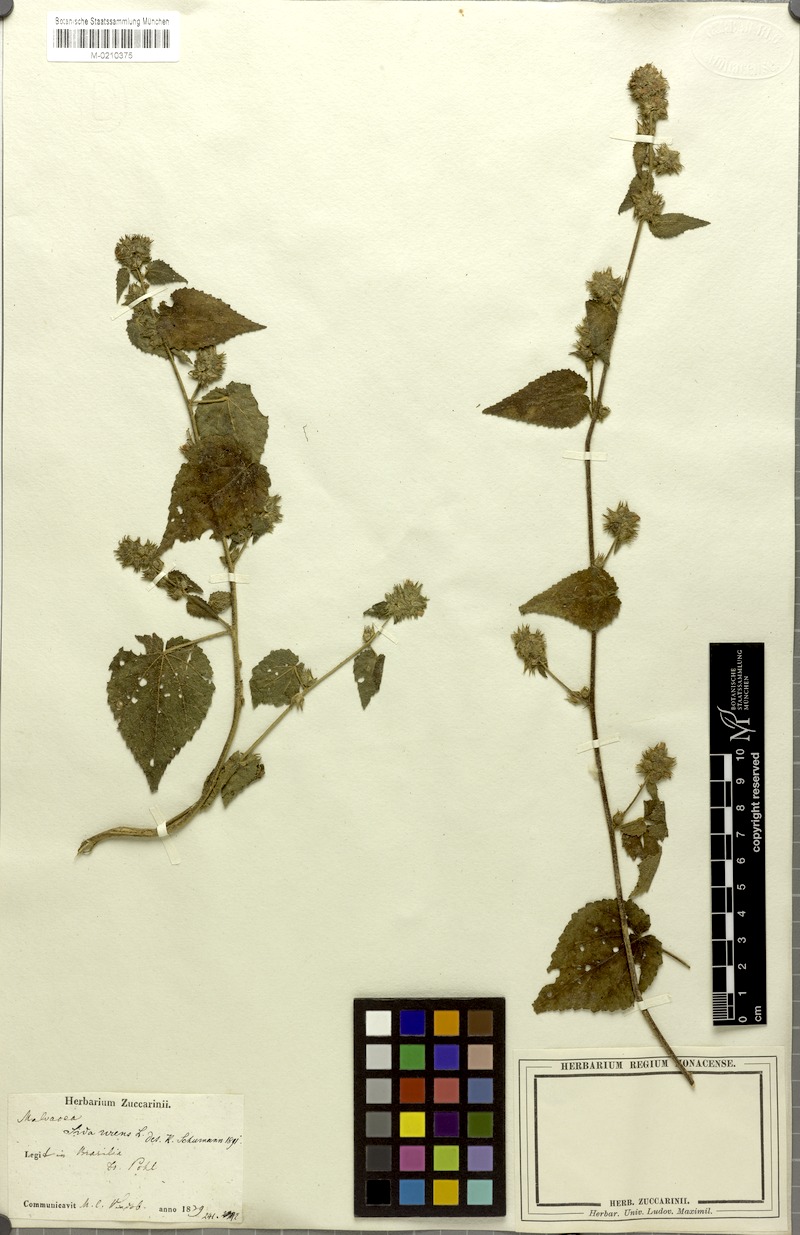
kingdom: Plantae
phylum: Tracheophyta
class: Magnoliopsida
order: Malvales
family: Malvaceae
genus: Sida
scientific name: Sida urens
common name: Tropical fanpetals
